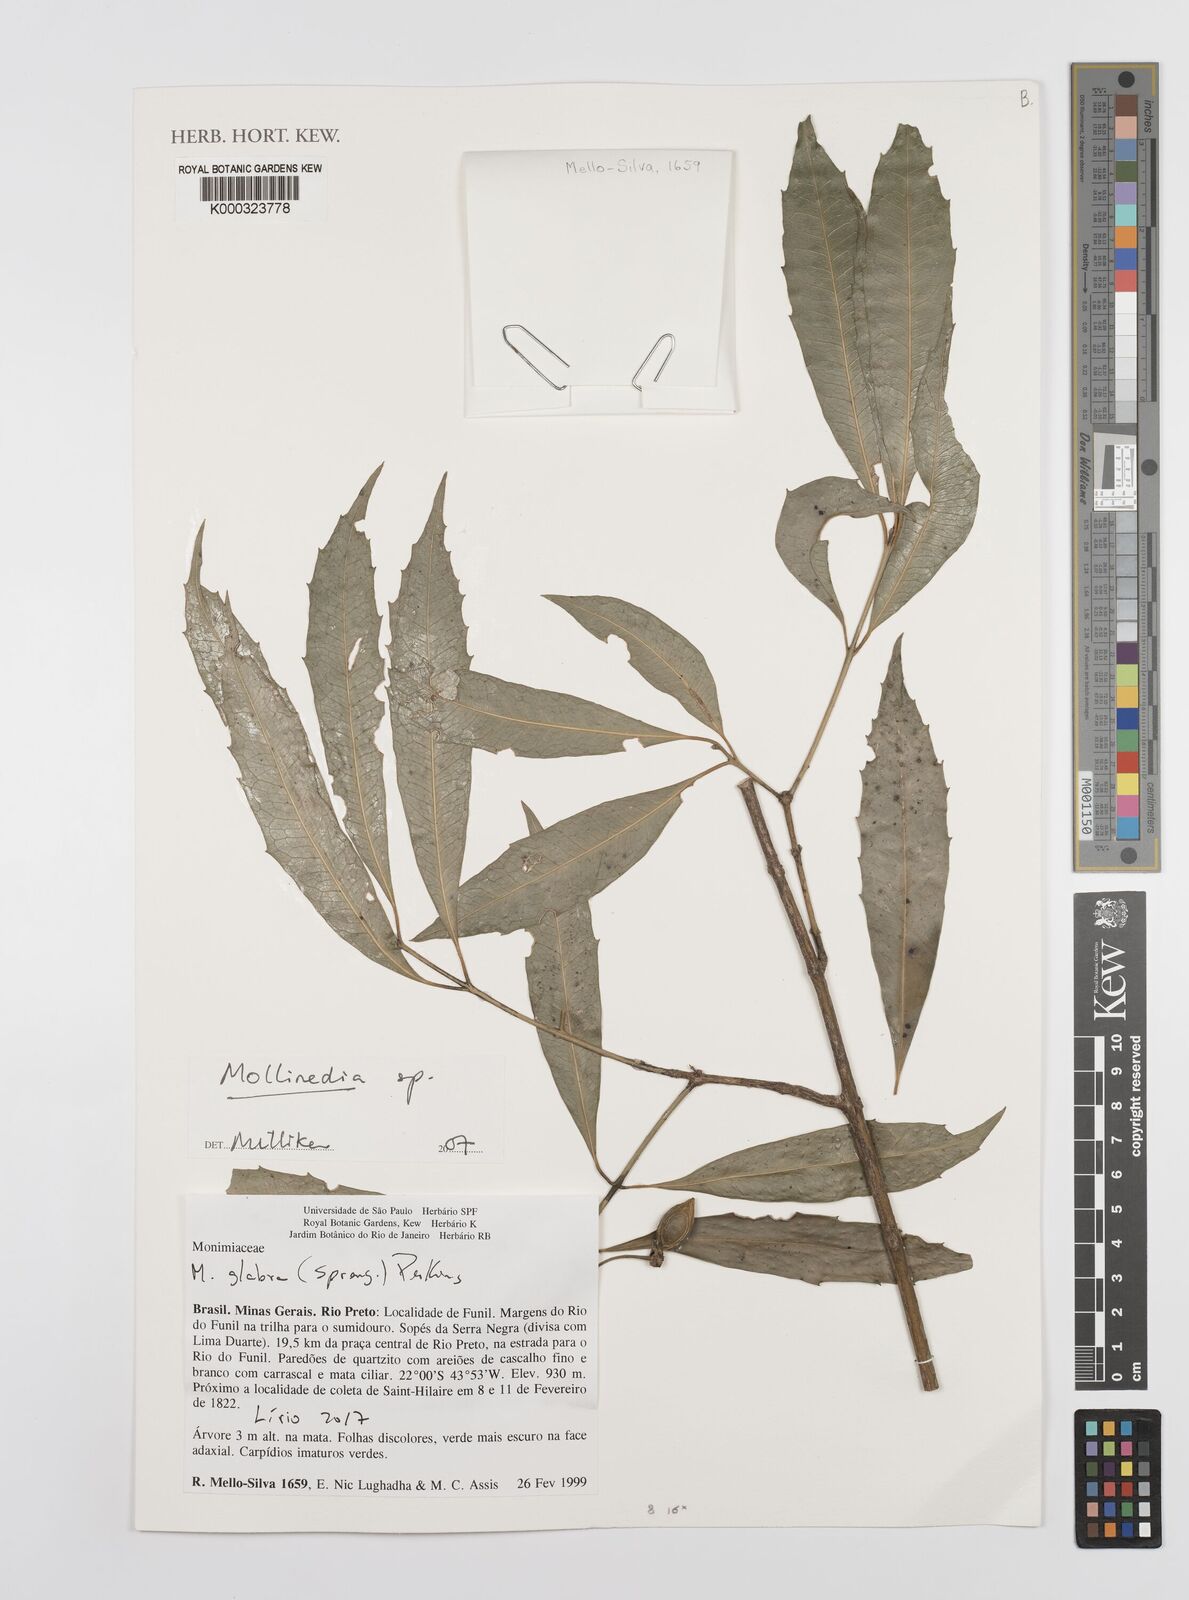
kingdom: Plantae
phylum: Tracheophyta
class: Magnoliopsida
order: Laurales
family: Monimiaceae
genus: Mollinedia
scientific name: Mollinedia
